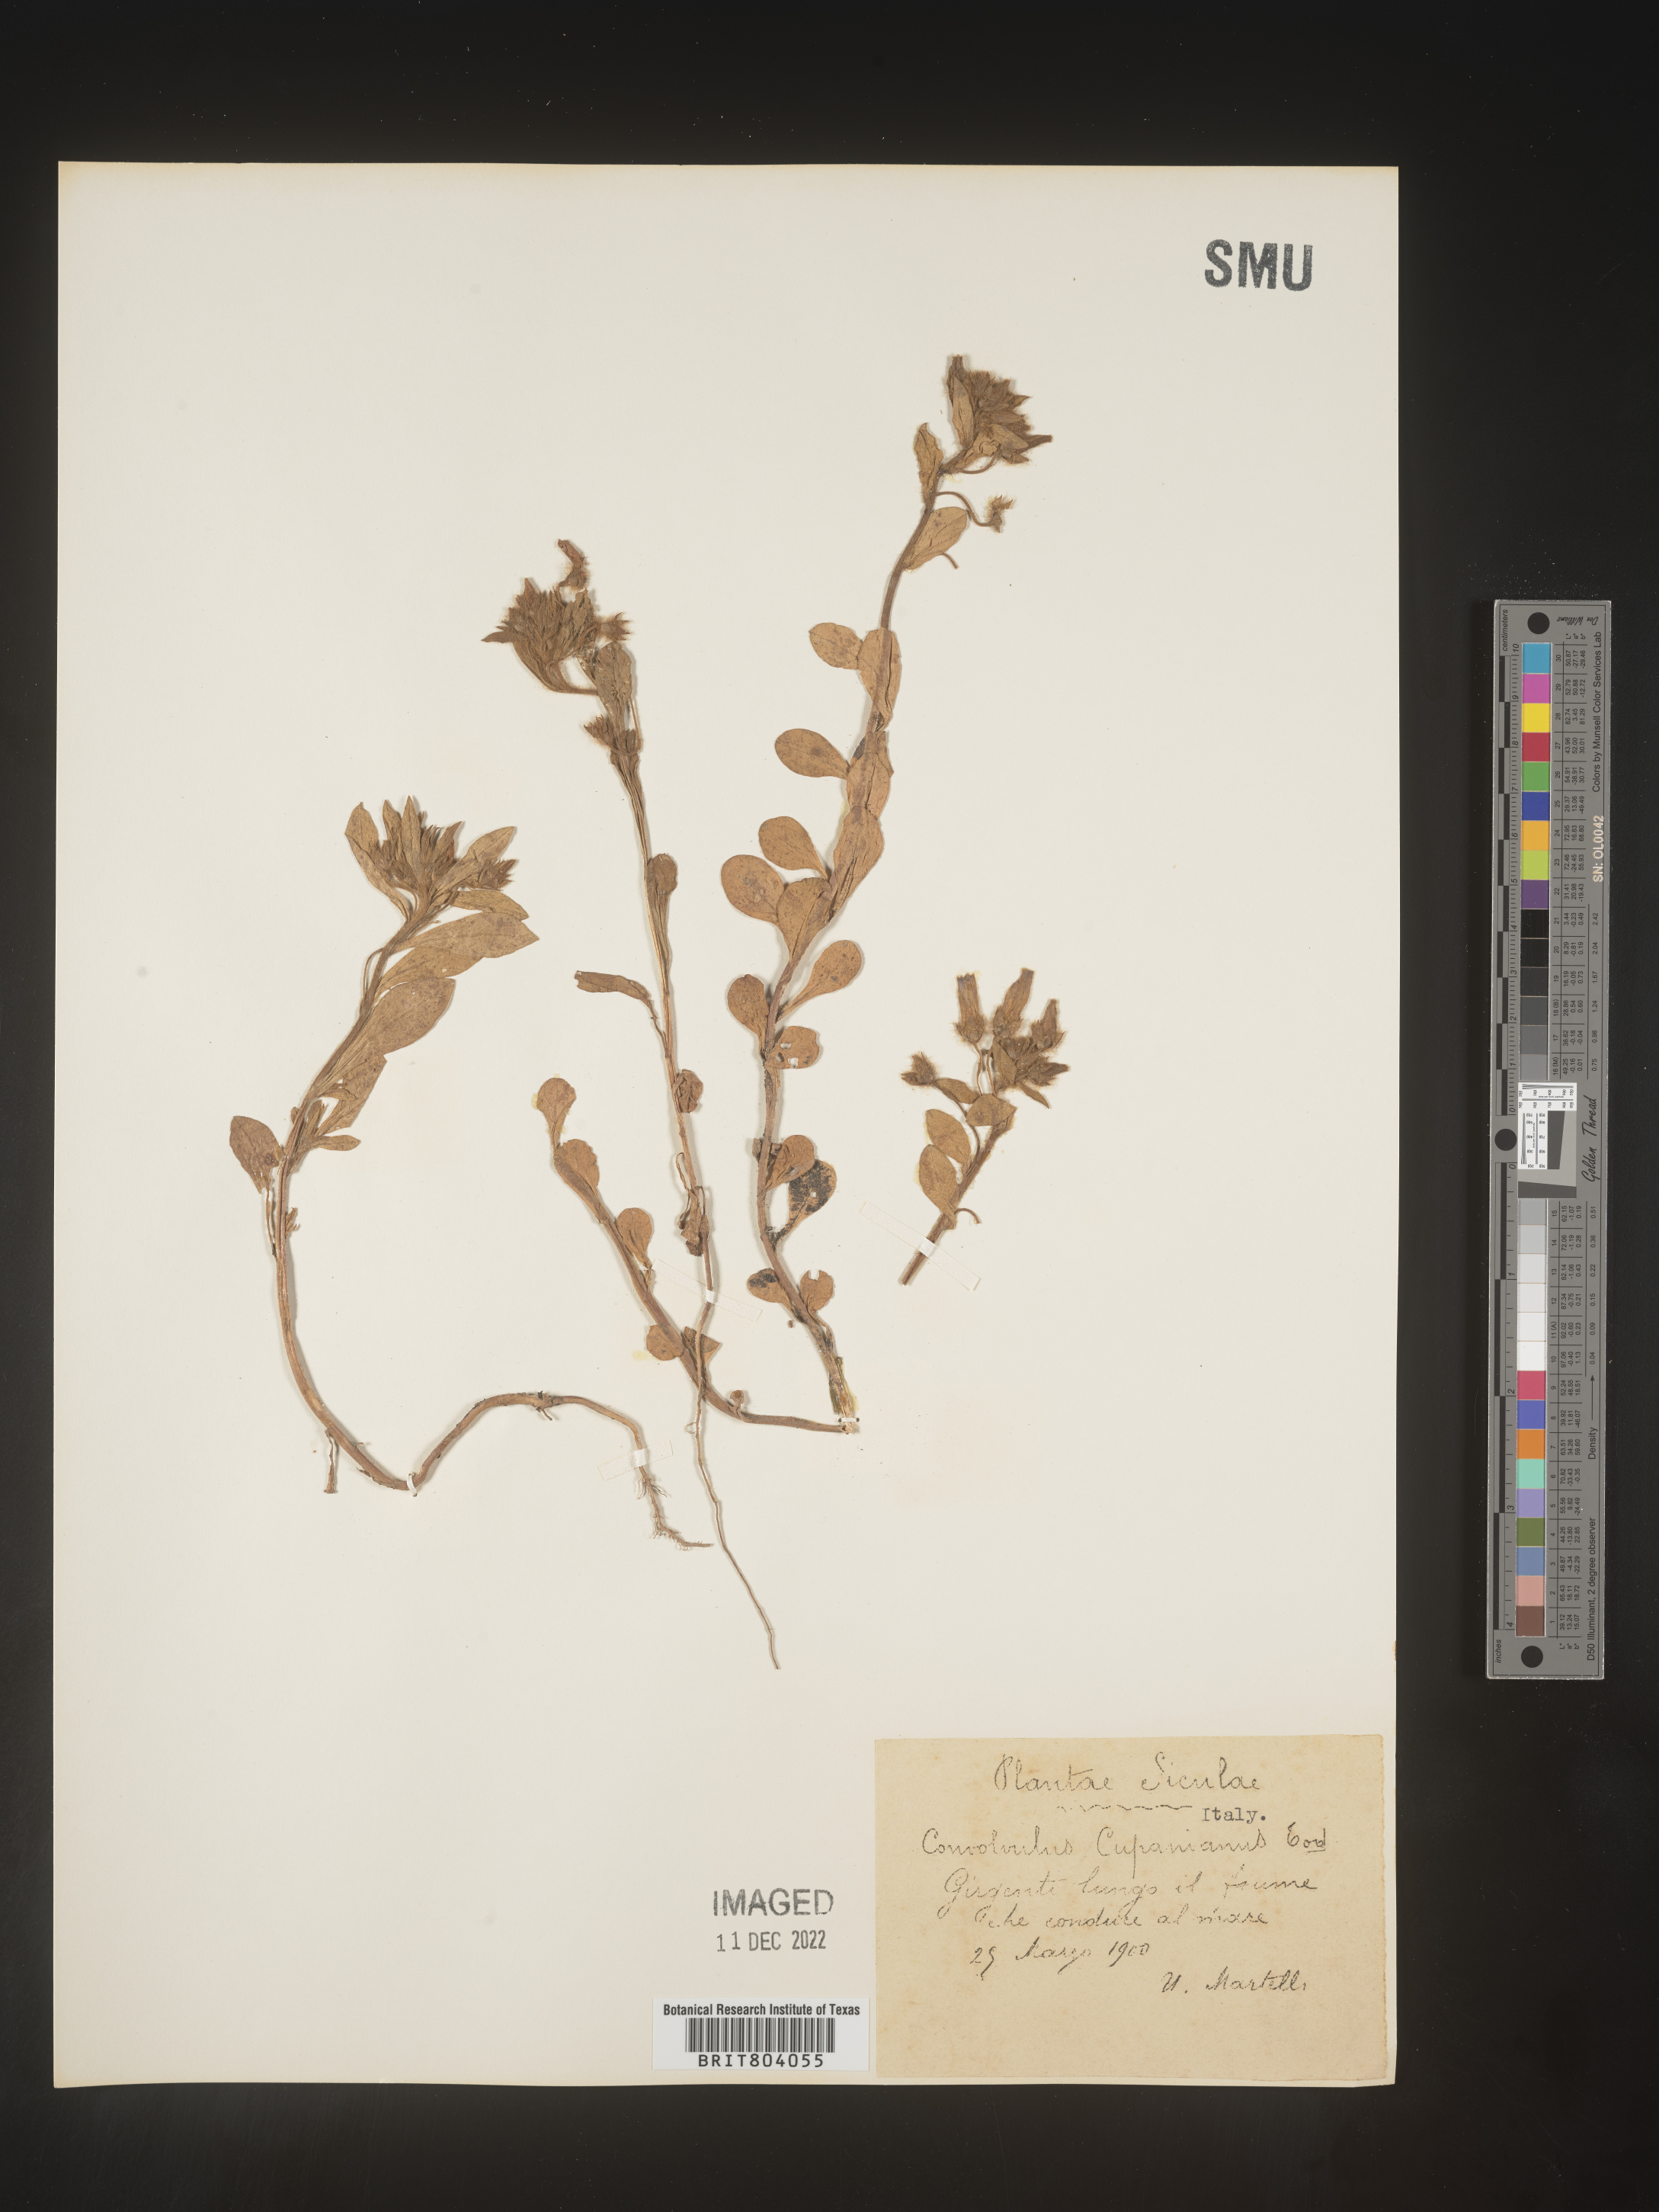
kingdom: Plantae
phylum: Tracheophyta
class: Magnoliopsida
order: Solanales
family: Convolvulaceae
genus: Convolvulus
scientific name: Convolvulus
